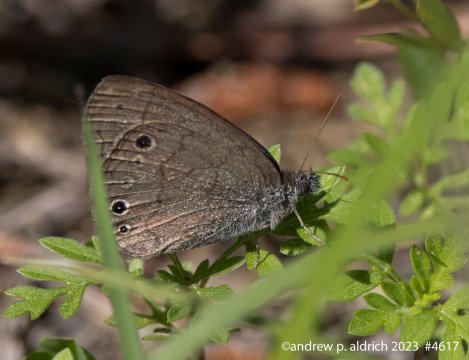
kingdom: Animalia
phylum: Arthropoda
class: Insecta
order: Lepidoptera
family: Nymphalidae
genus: Hermeuptychia
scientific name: Hermeuptychia hermes
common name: Carolina Satyr
